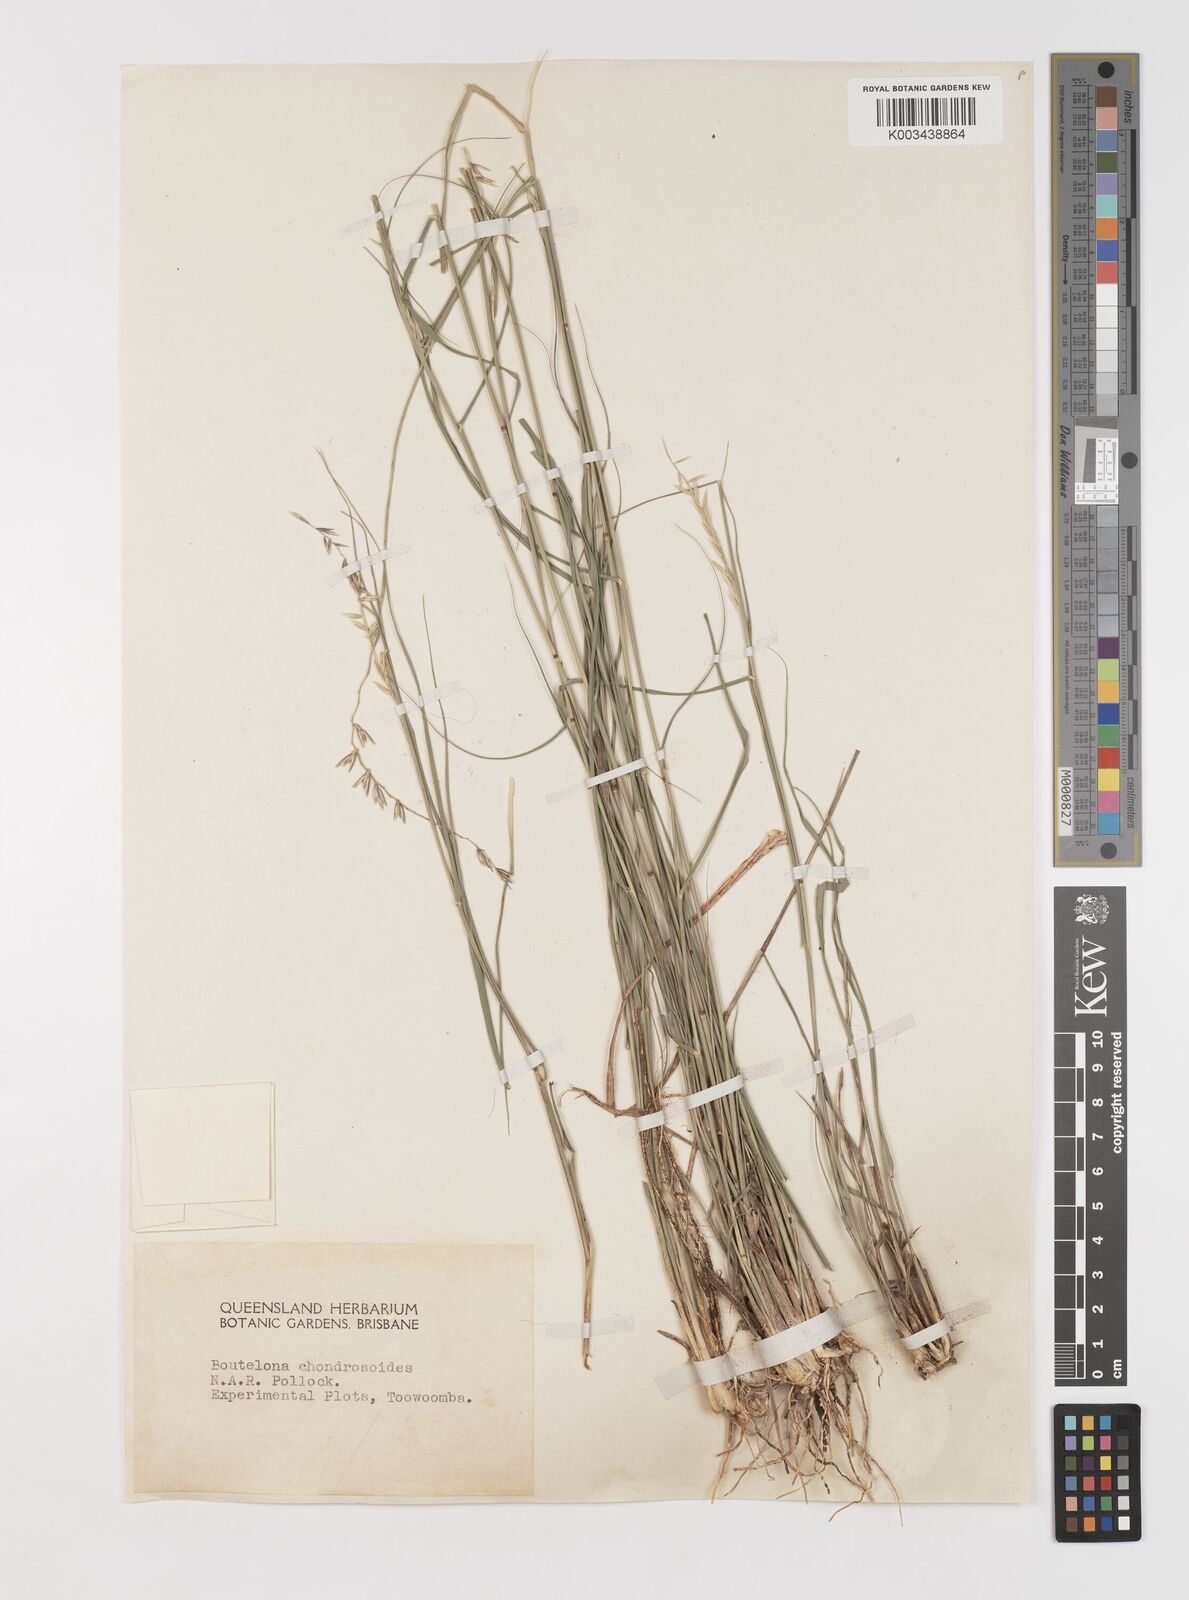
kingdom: Plantae
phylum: Tracheophyta
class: Liliopsida
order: Poales
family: Poaceae
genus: Bouteloua
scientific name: Bouteloua curtipendula
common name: Side-oats grama
